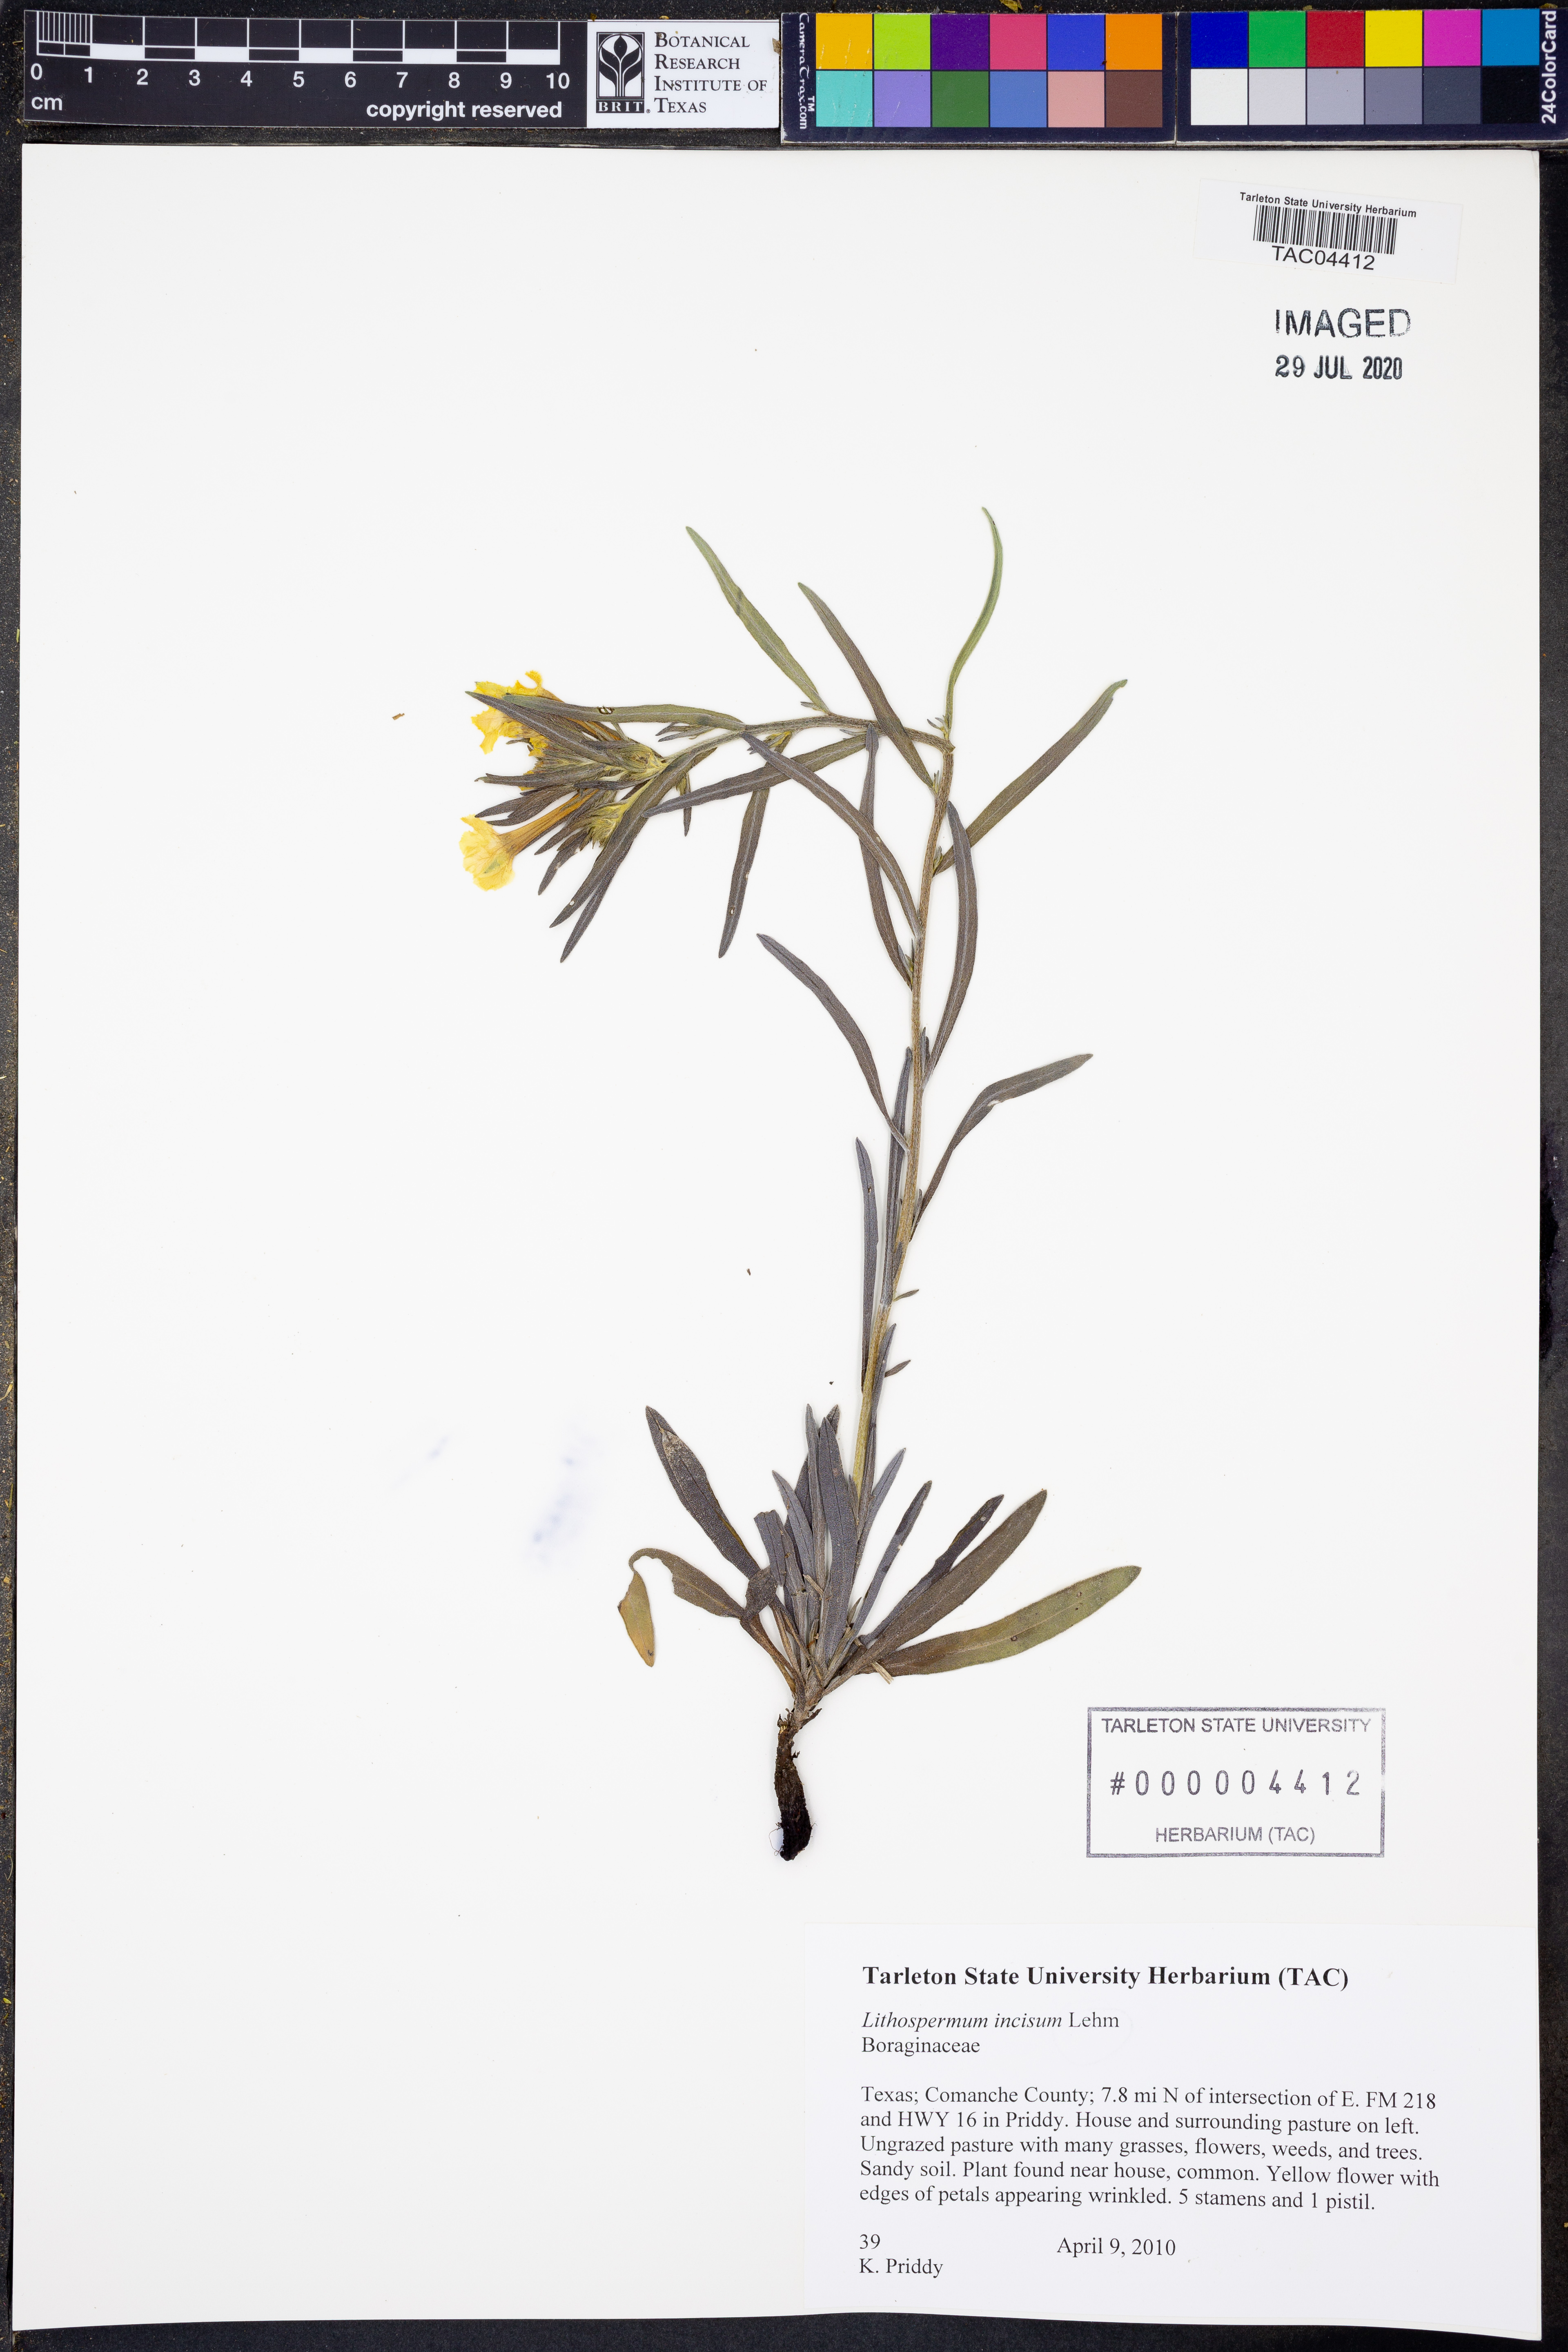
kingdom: Plantae
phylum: Tracheophyta
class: Magnoliopsida
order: Boraginales
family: Boraginaceae
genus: Lithospermum
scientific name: Lithospermum incisum
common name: Fringed gromwell
